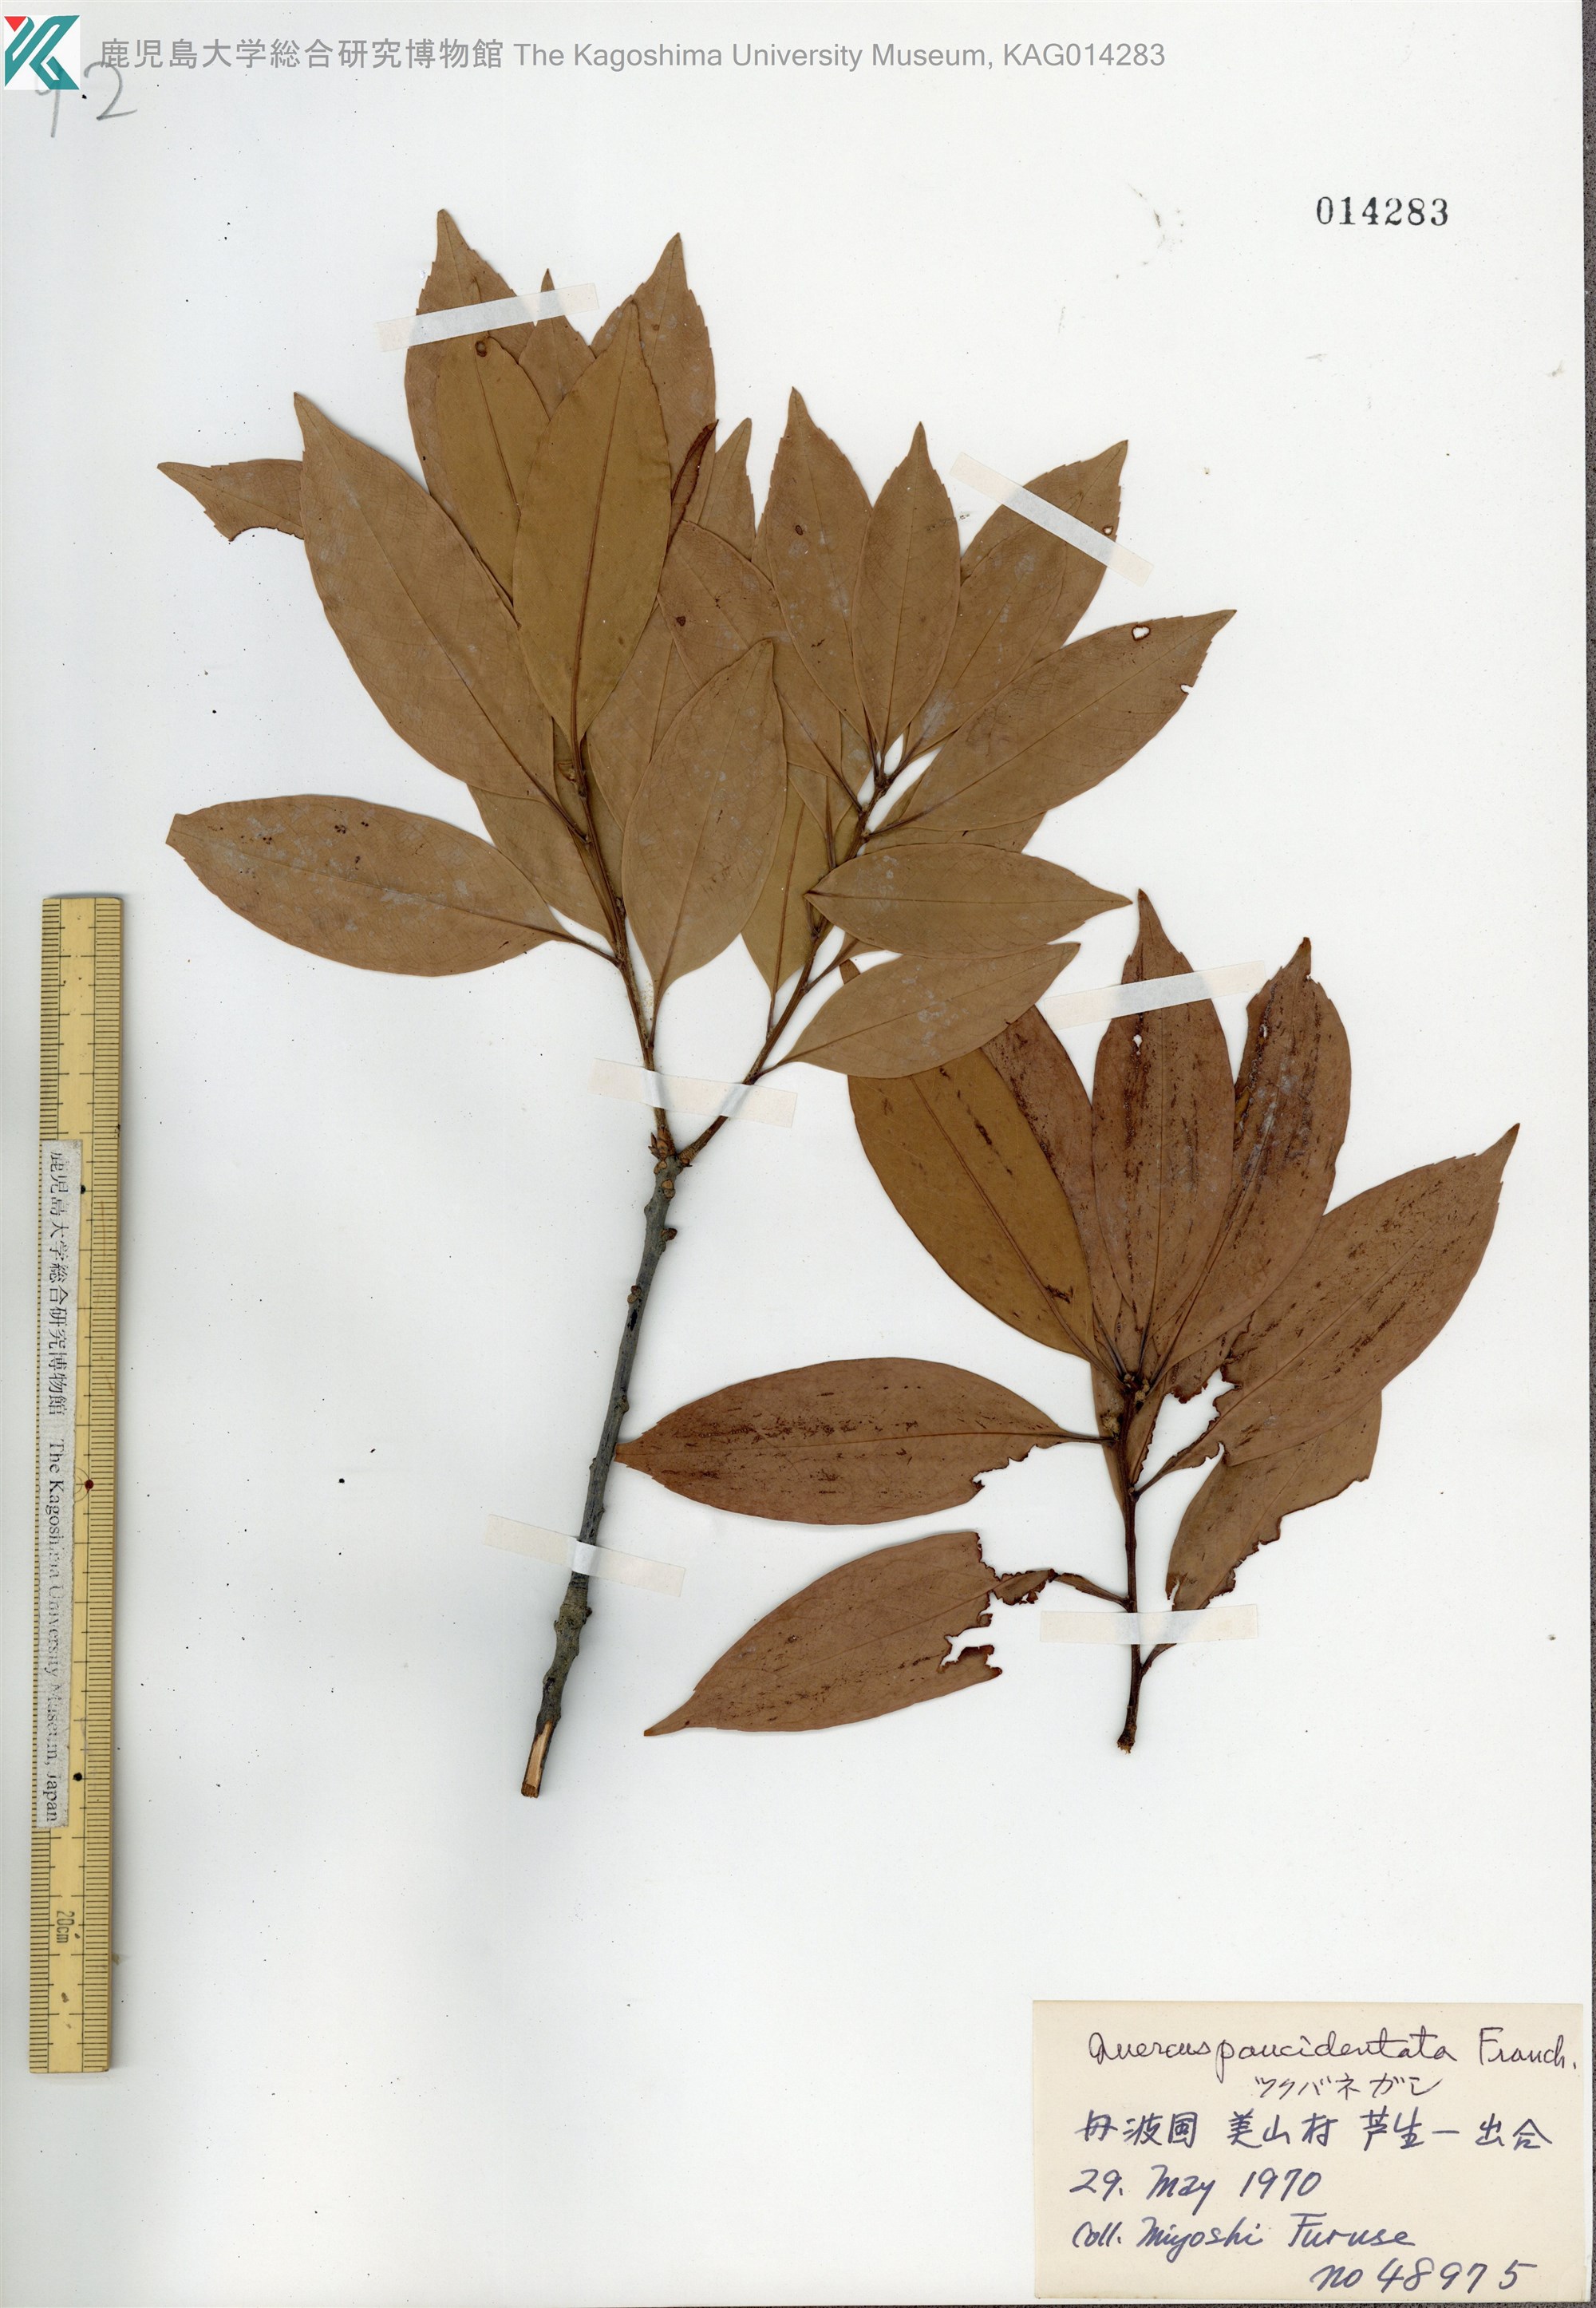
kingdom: Plantae
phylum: Tracheophyta
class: Magnoliopsida
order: Fagales
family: Fagaceae
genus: Quercus
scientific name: Quercus sessilifolia
